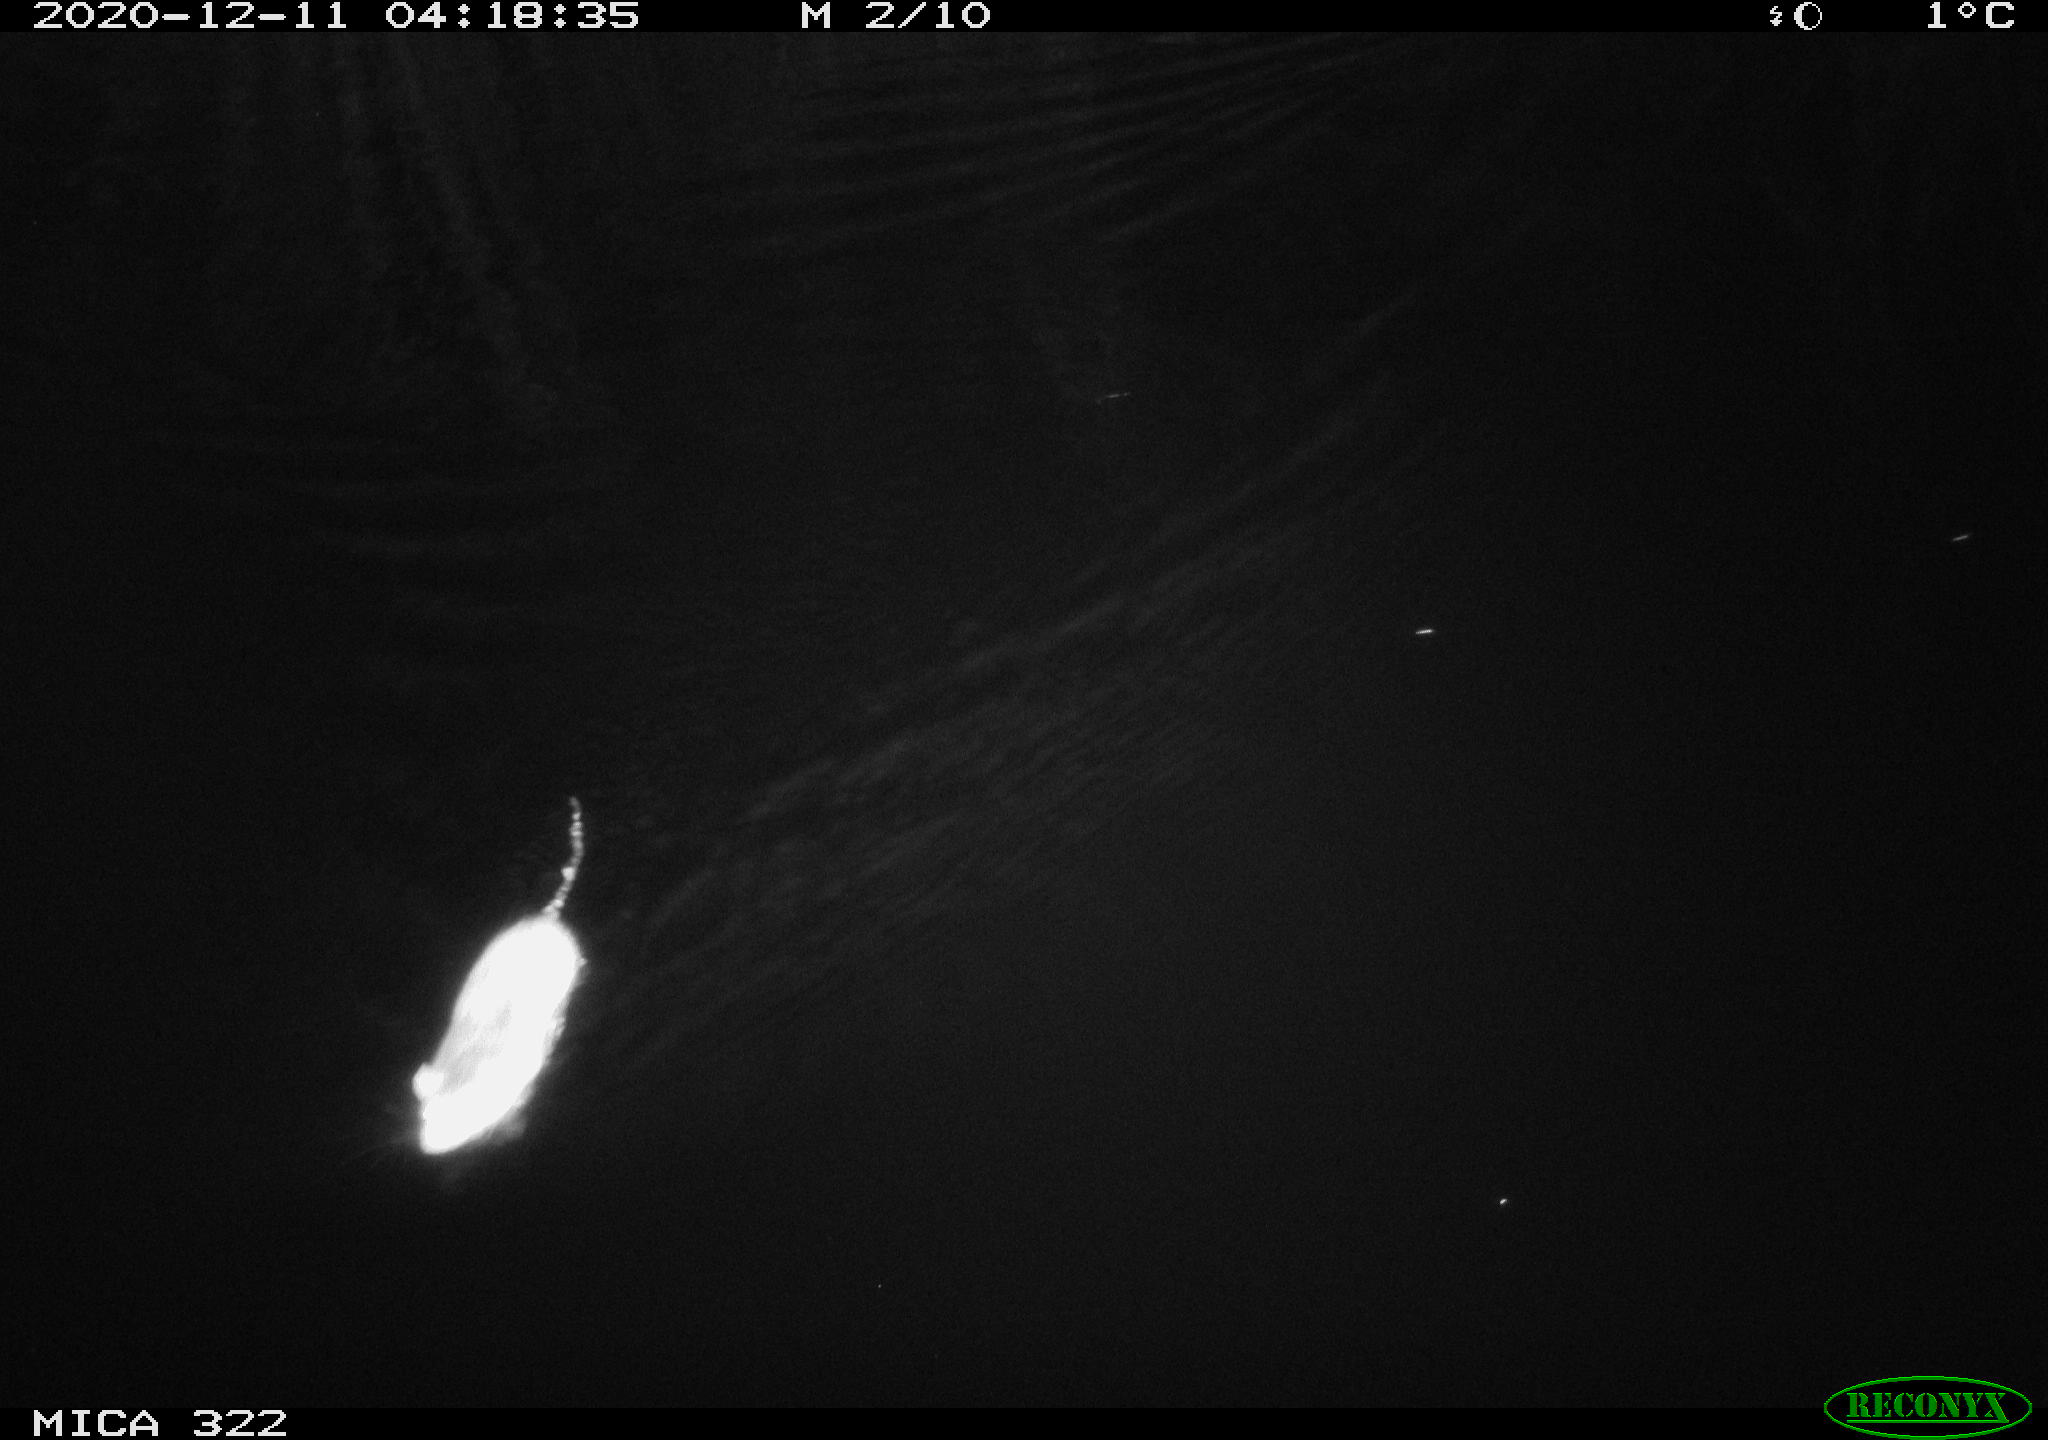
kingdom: Animalia
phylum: Chordata
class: Mammalia
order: Rodentia
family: Muridae
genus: Rattus
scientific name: Rattus norvegicus
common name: Brown rat
